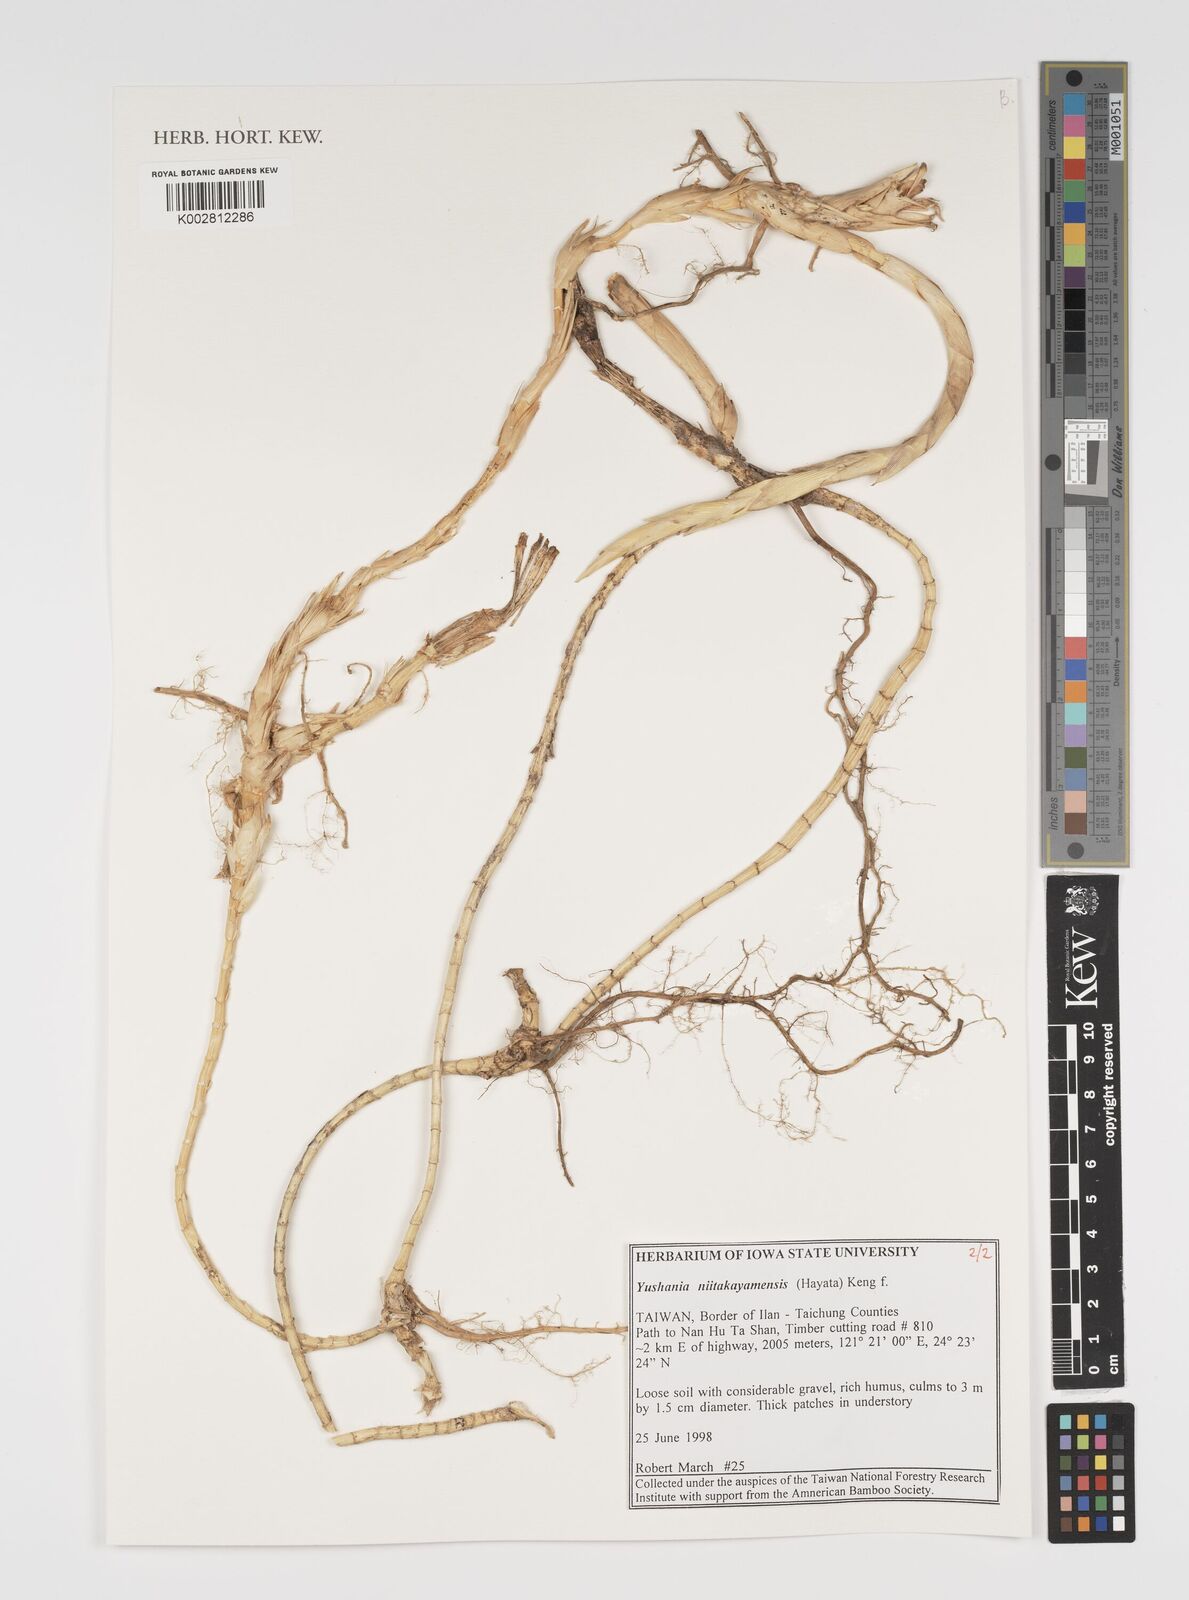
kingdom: Plantae
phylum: Tracheophyta
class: Liliopsida
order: Poales
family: Poaceae
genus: Yushania
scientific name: Yushania niitakayamensis
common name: Yushan cane
